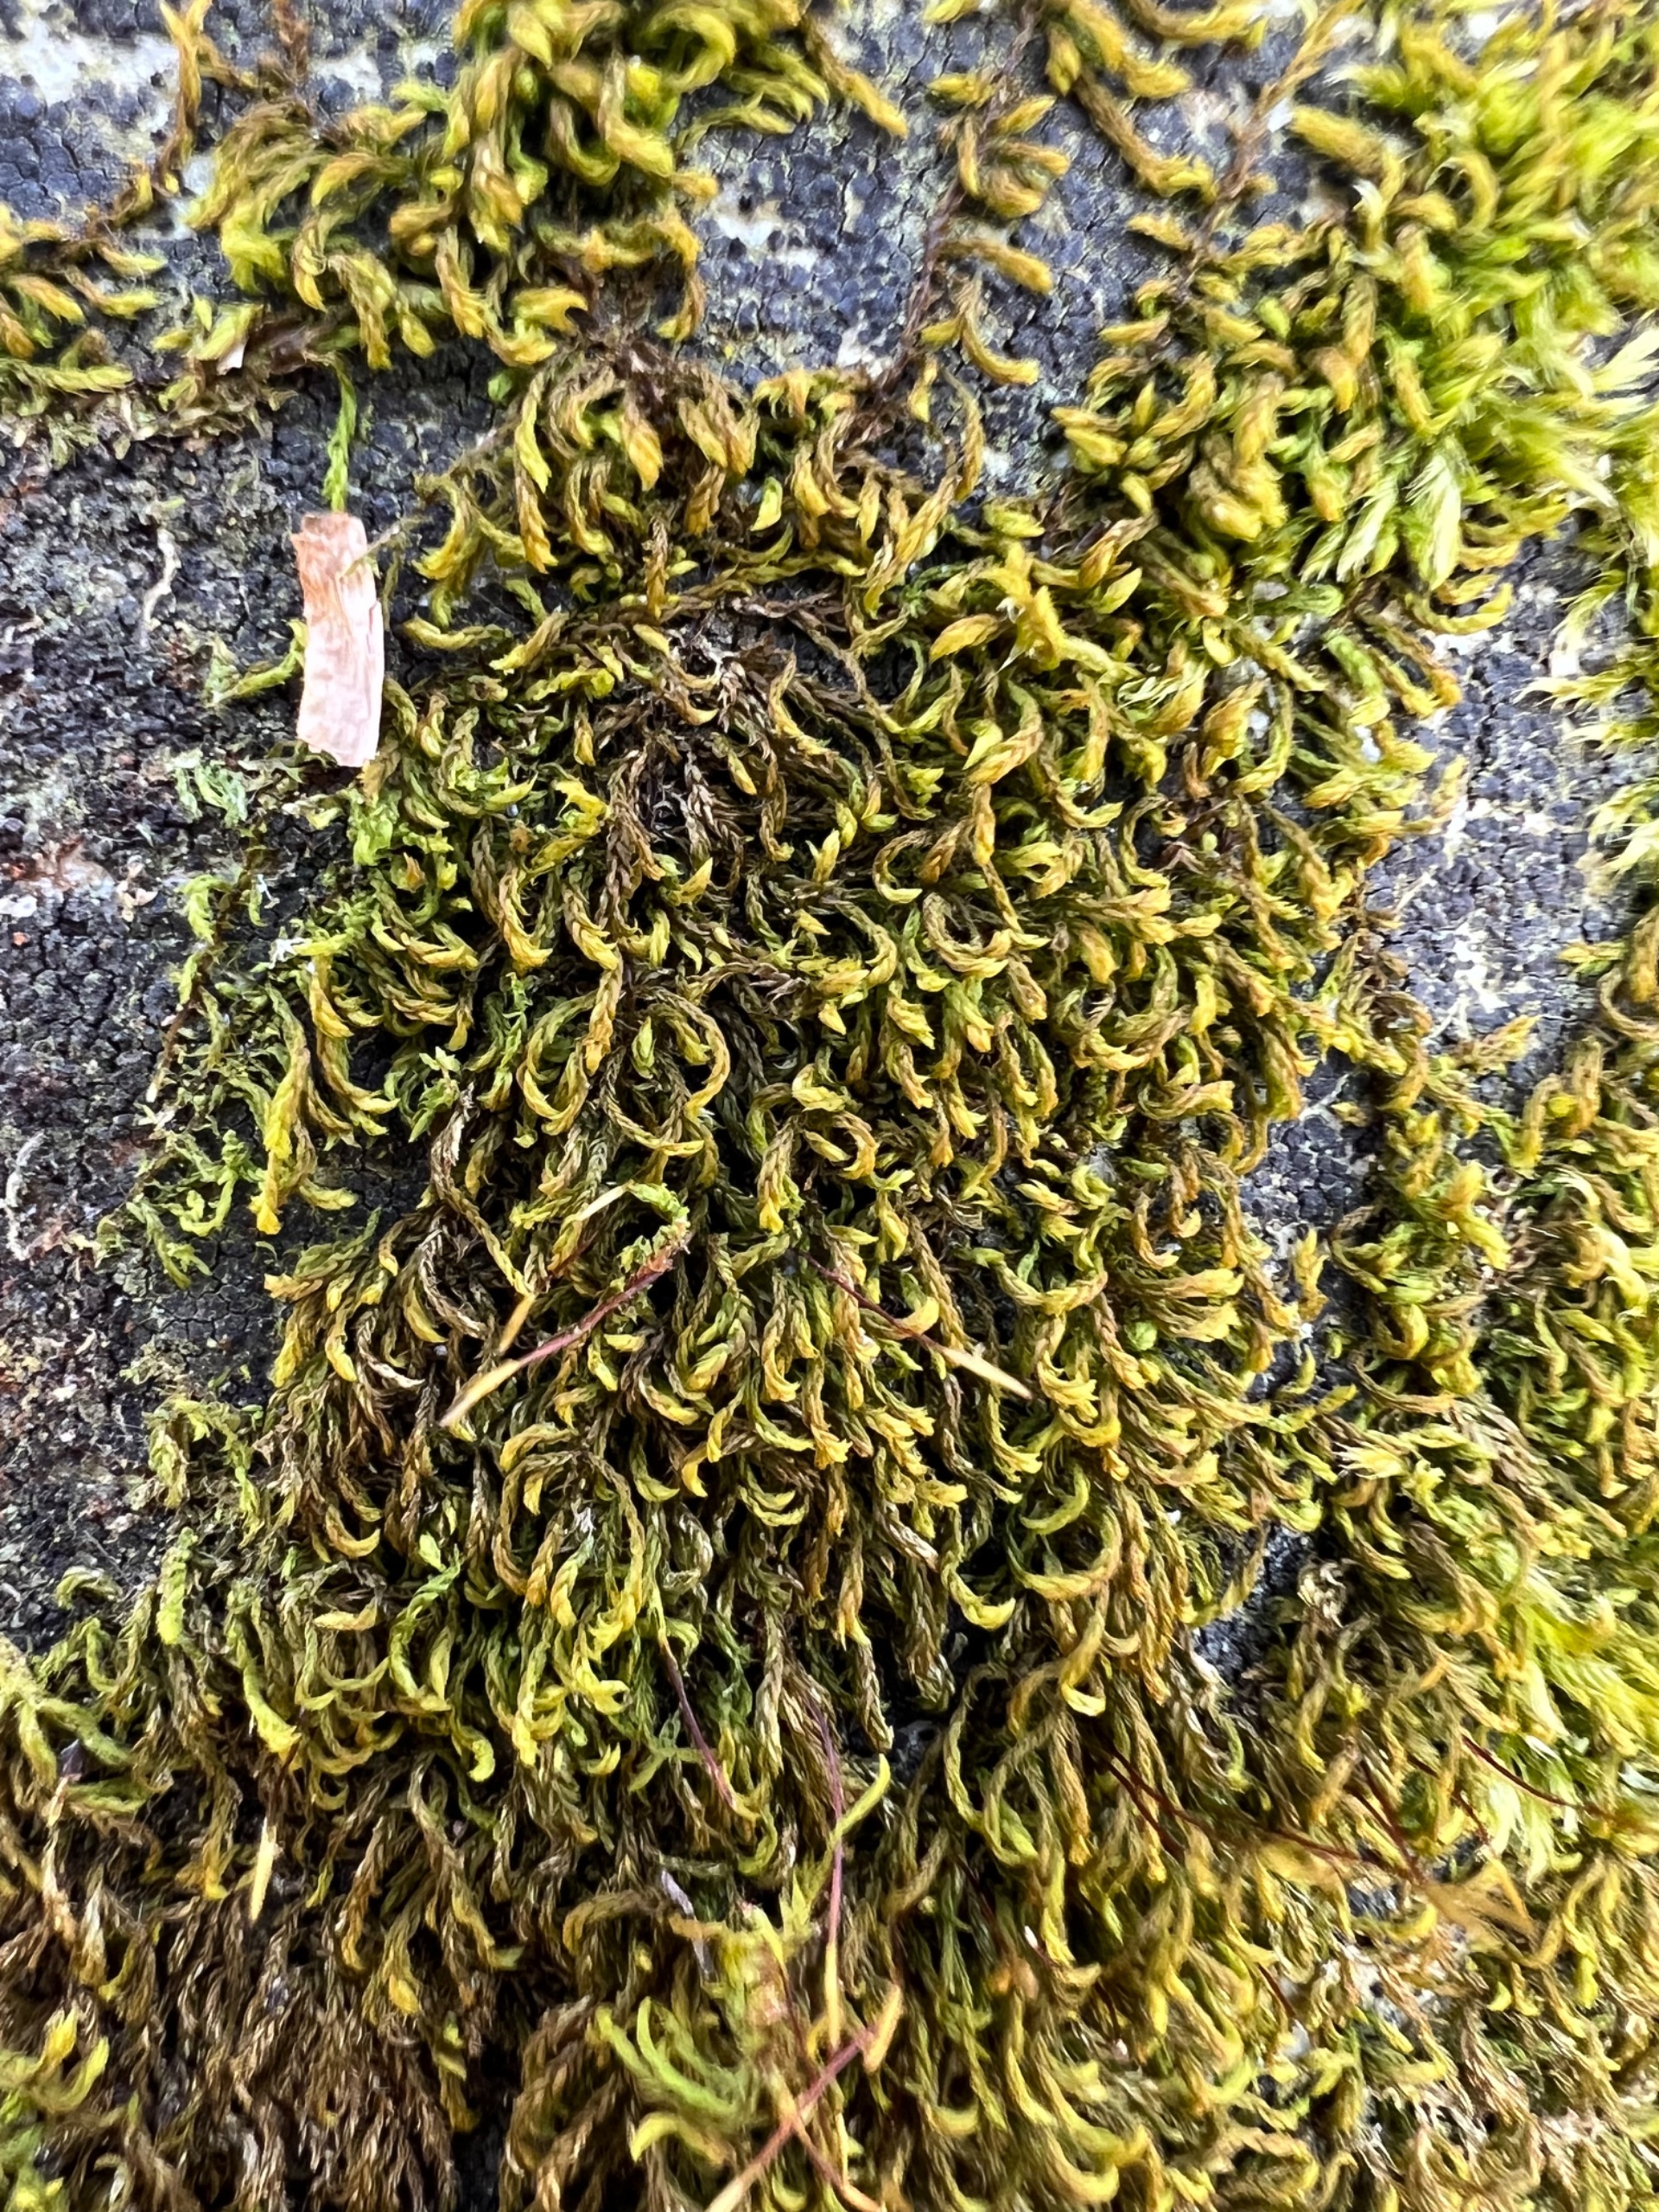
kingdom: Plantae
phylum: Bryophyta
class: Bryopsida
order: Hypnales
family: Leskeaceae
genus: Leskea
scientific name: Leskea polycarpa
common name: Mat lærkemos
